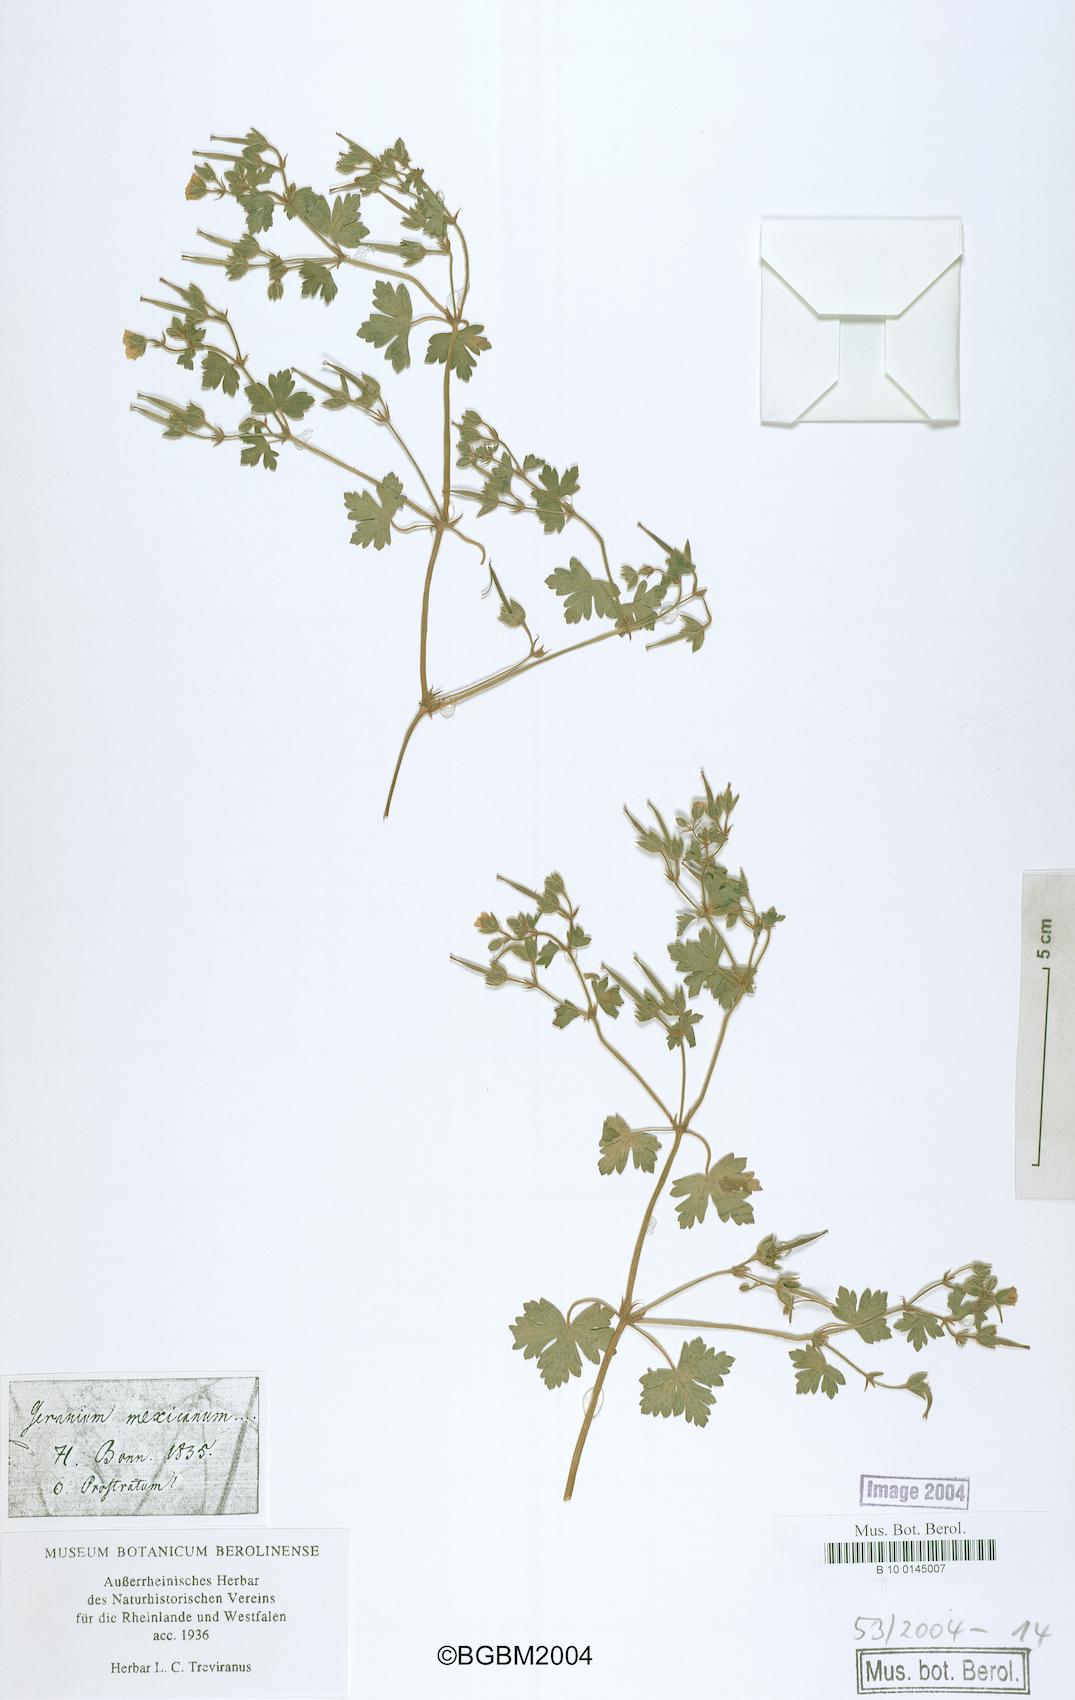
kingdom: Plantae
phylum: Tracheophyta
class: Magnoliopsida
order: Geraniales
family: Geraniaceae
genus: Geranium
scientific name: Geranium seemannii
